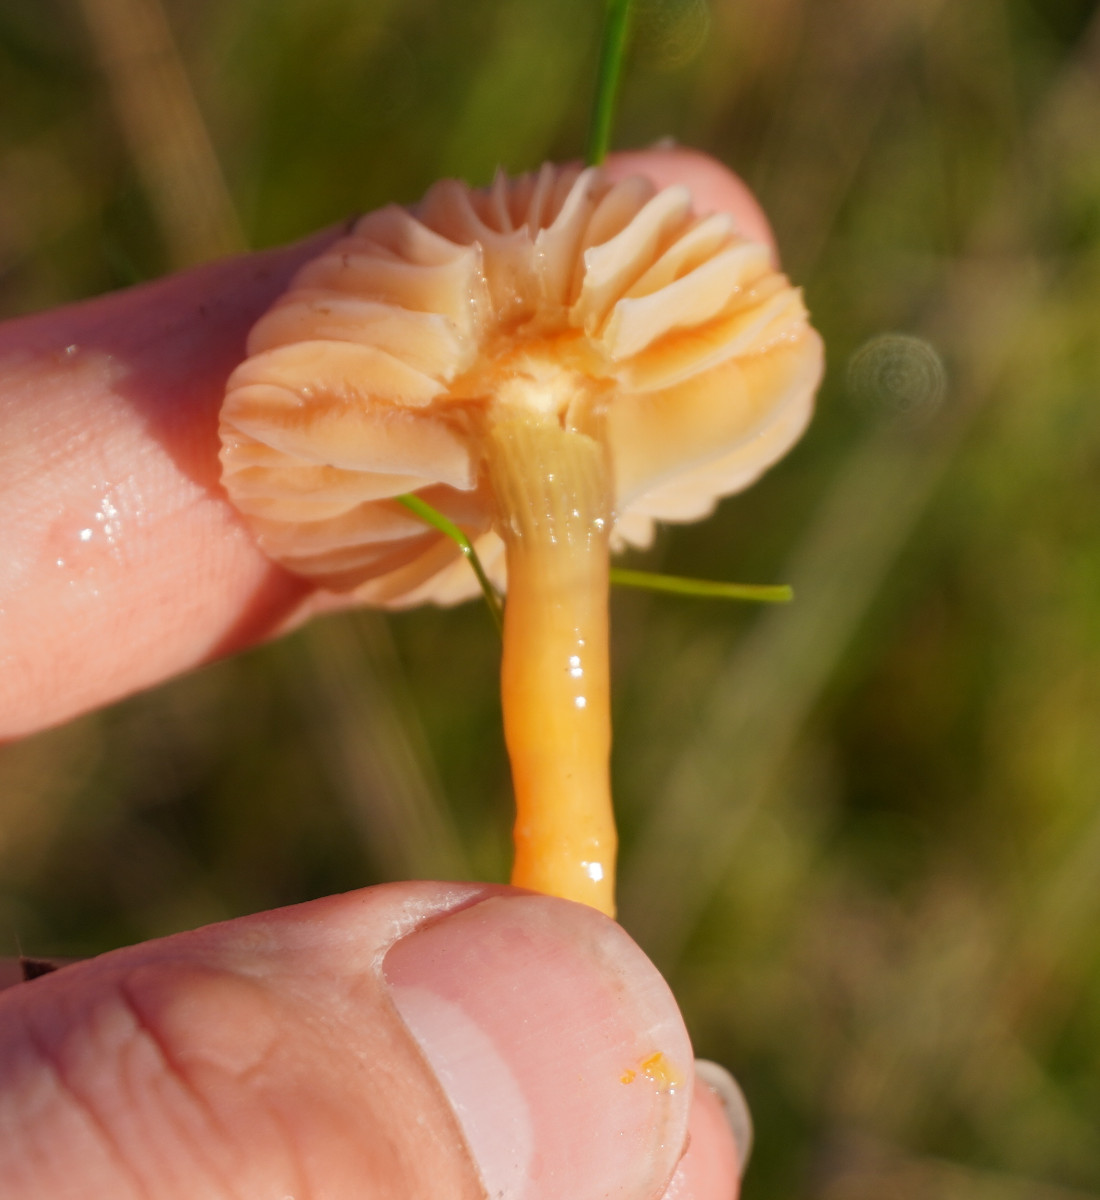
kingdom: Fungi
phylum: Basidiomycota
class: Agaricomycetes
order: Agaricales
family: Hygrophoraceae
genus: Gliophorus
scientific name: Gliophorus laetus
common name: brusk-vokshat
